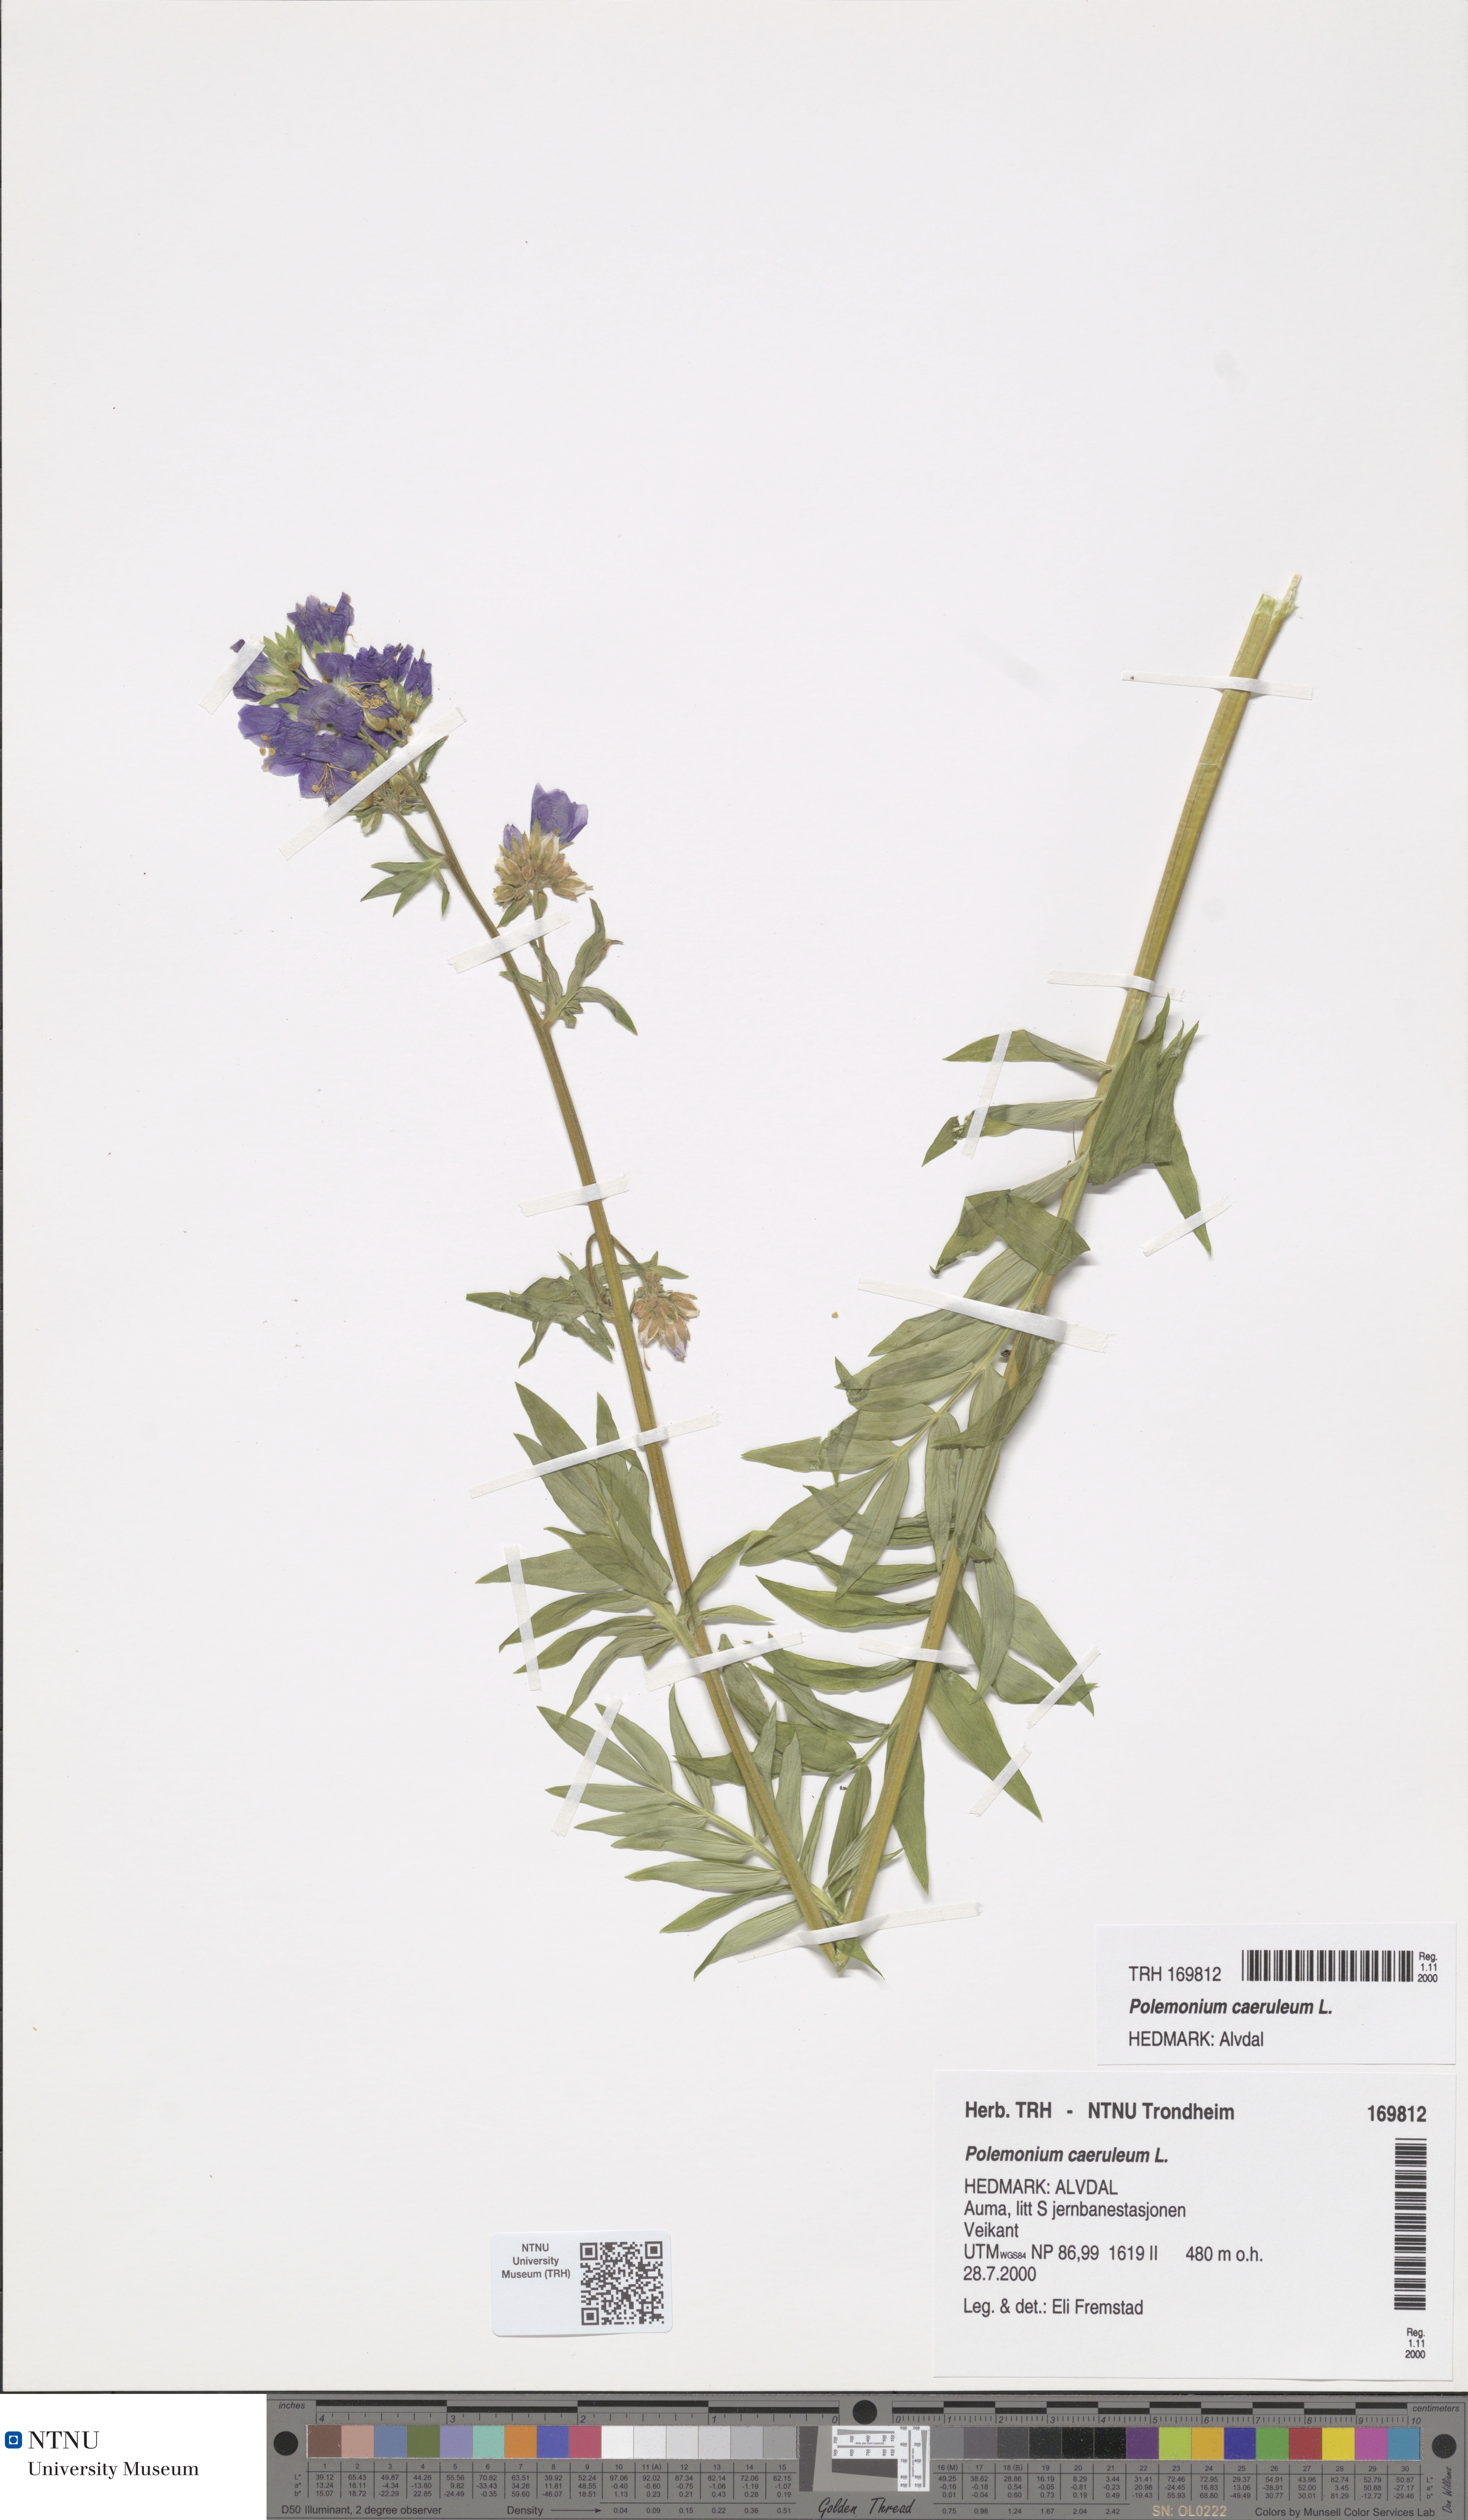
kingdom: Plantae
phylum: Tracheophyta
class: Magnoliopsida
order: Ericales
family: Polemoniaceae
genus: Polemonium
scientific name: Polemonium caeruleum
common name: Jacob's-ladder
